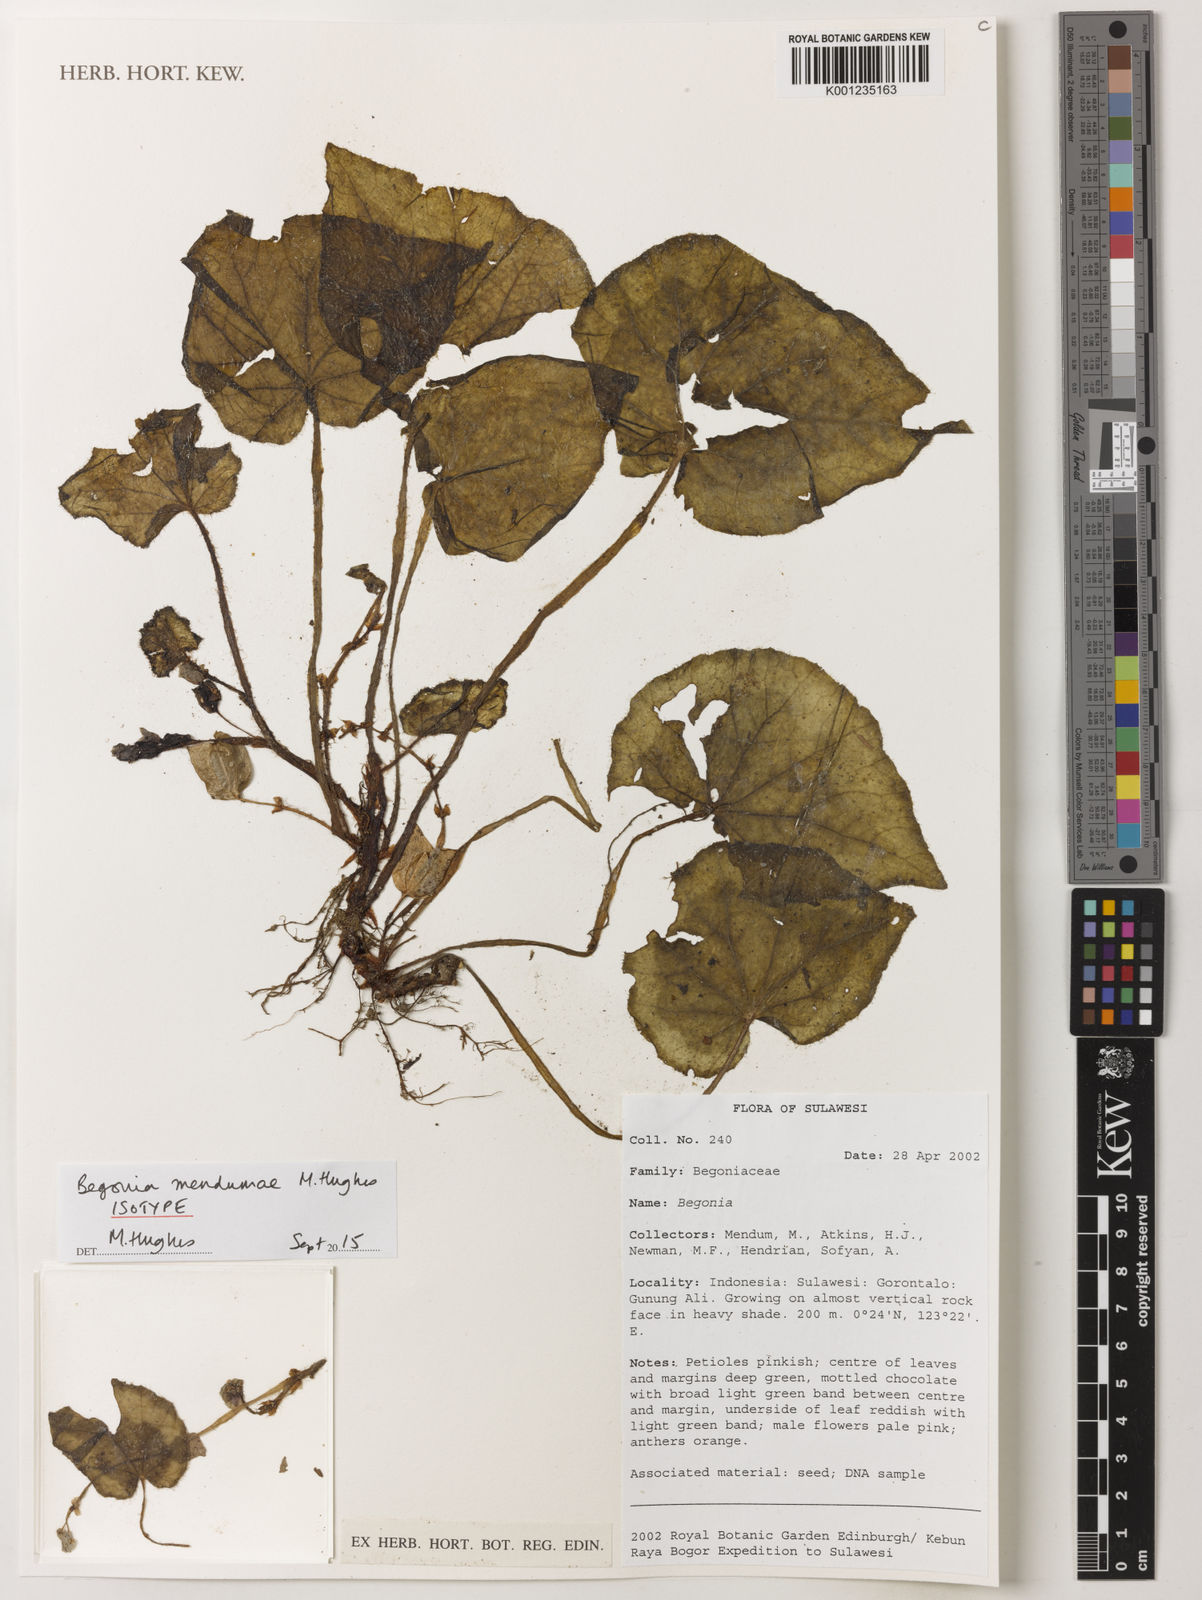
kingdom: Plantae
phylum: Tracheophyta
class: Magnoliopsida
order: Cucurbitales
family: Begoniaceae
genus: Begonia
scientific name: Begonia mendumae
